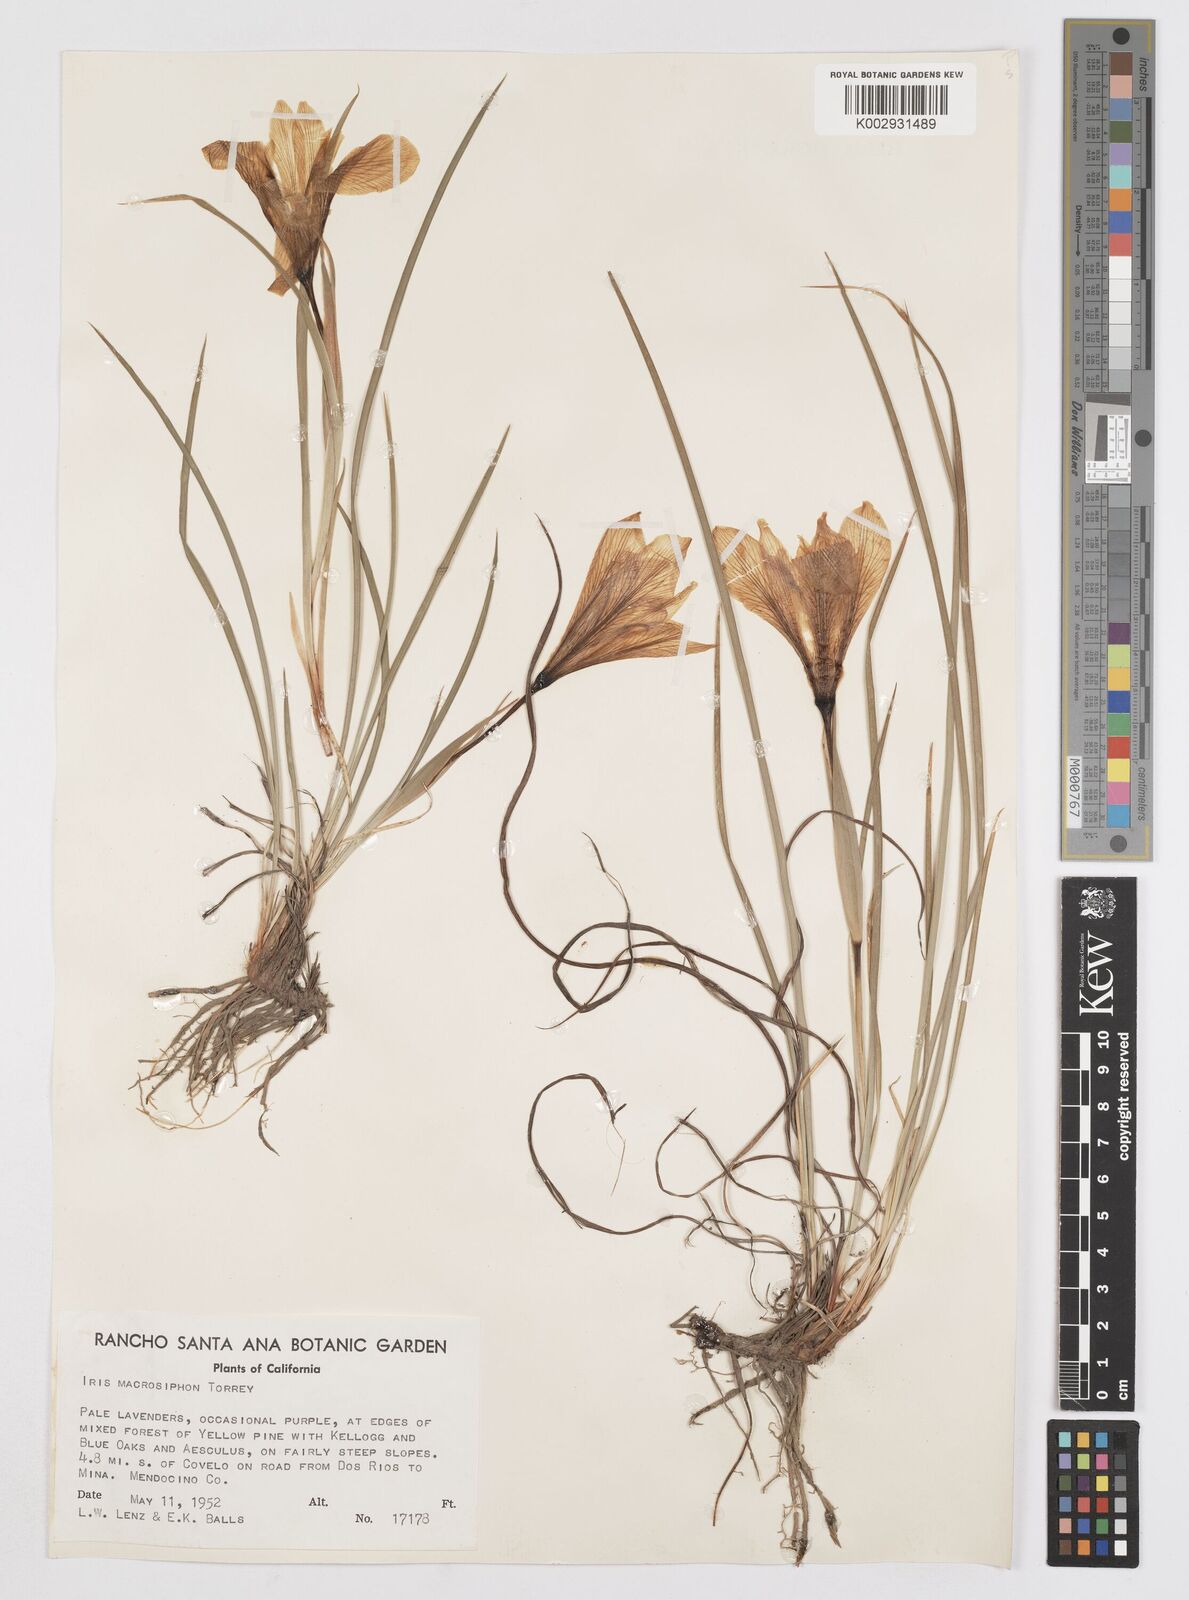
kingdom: Plantae
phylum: Tracheophyta
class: Liliopsida
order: Asparagales
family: Iridaceae
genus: Iris
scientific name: Iris macrosiphon
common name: Ground iris
